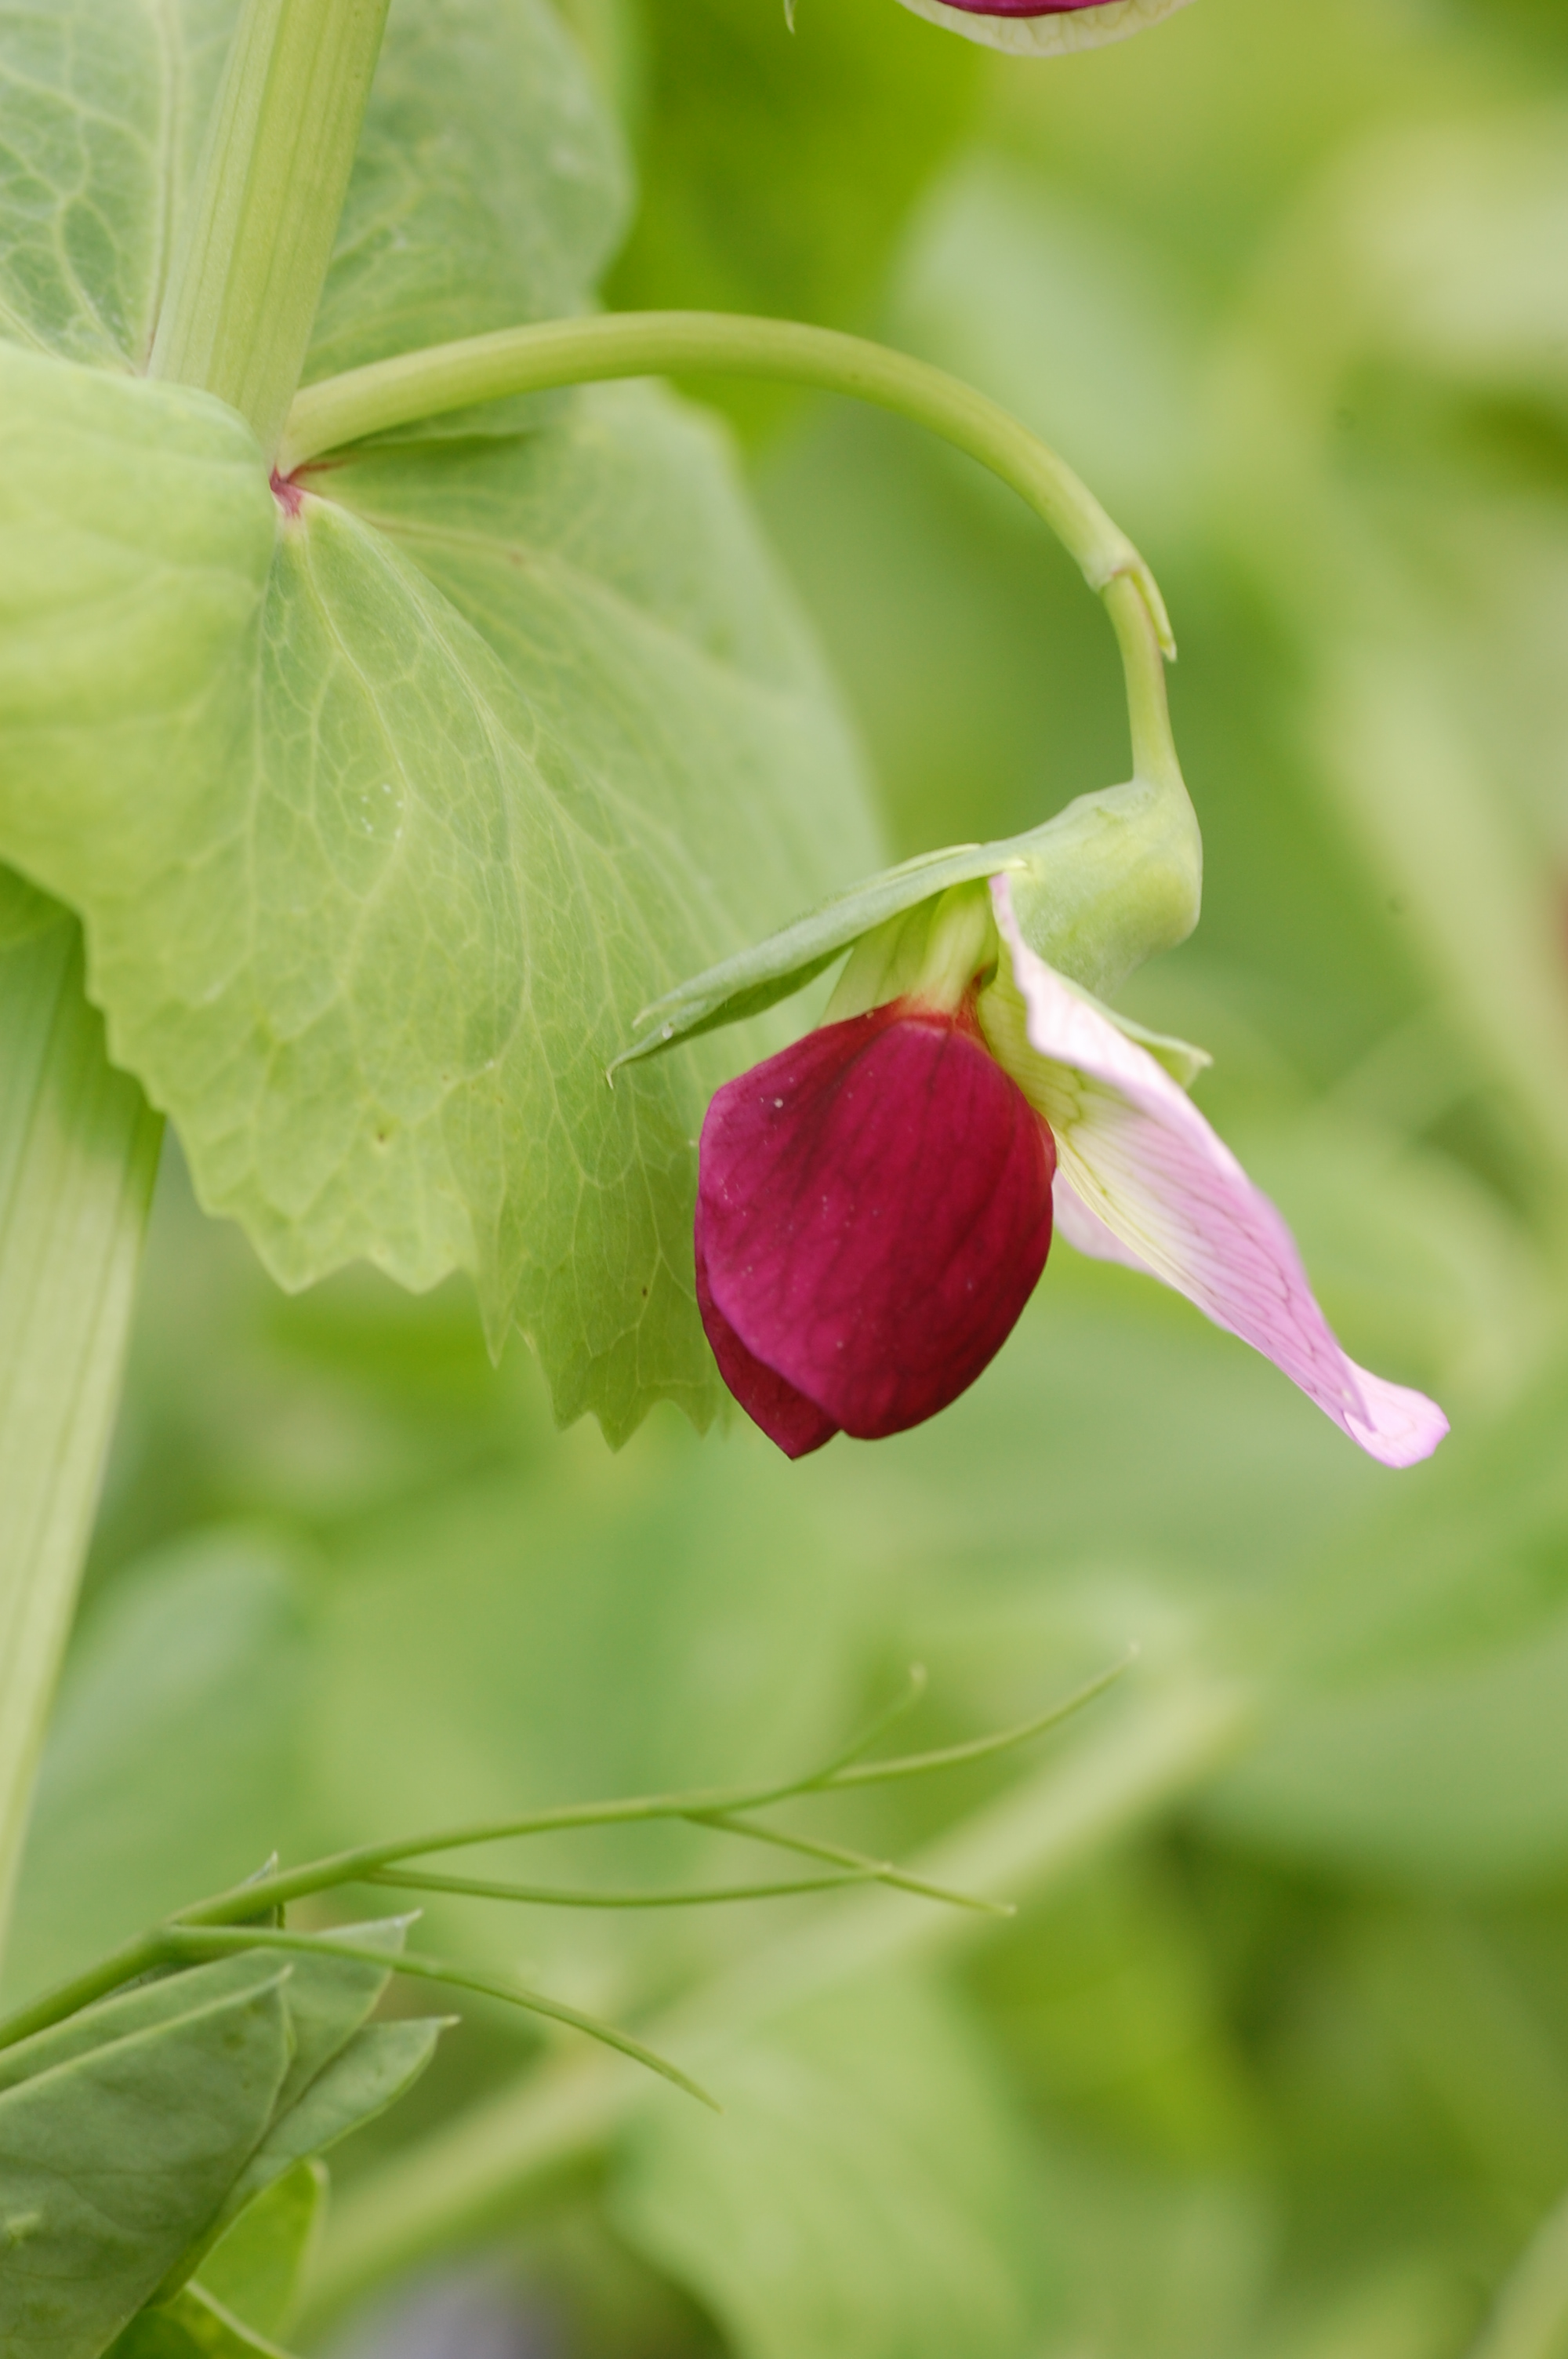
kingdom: Plantae
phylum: Tracheophyta
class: Magnoliopsida
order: Fabales
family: Fabaceae
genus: Lathyrus
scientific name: Lathyrus oleraceus
